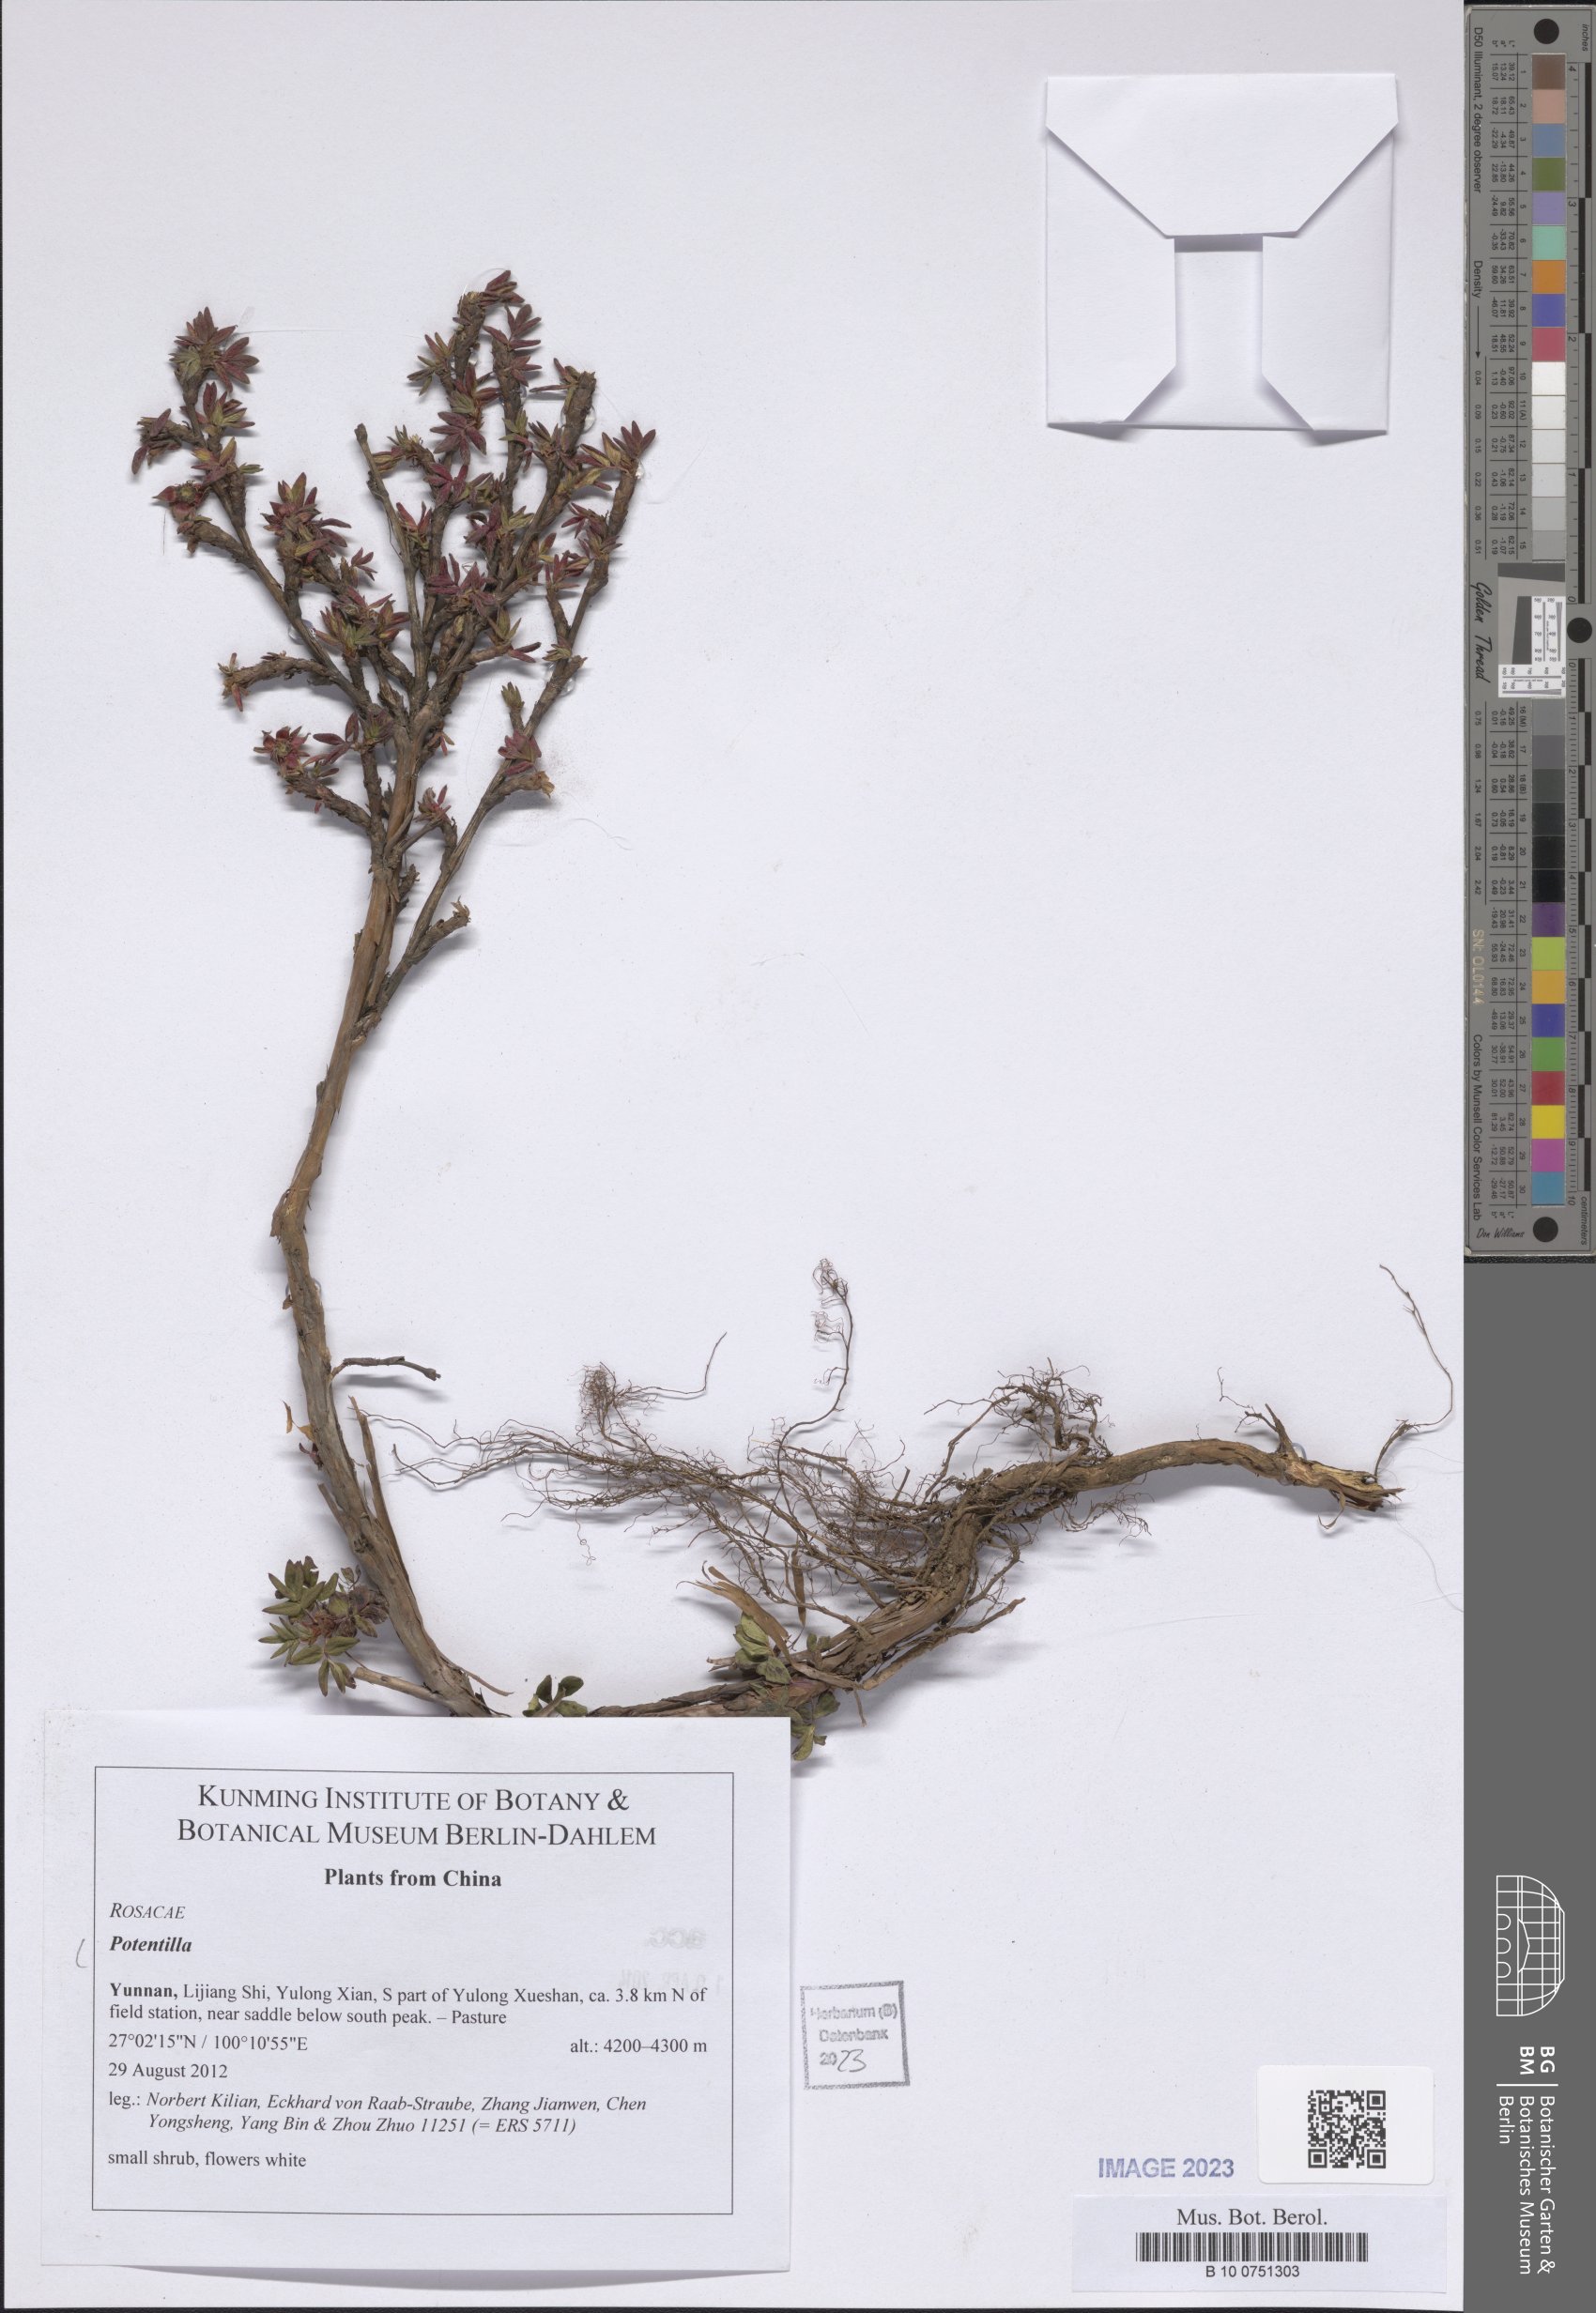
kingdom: Plantae
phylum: Tracheophyta
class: Magnoliopsida
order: Rosales
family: Rosaceae
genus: Potentilla
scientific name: Potentilla
